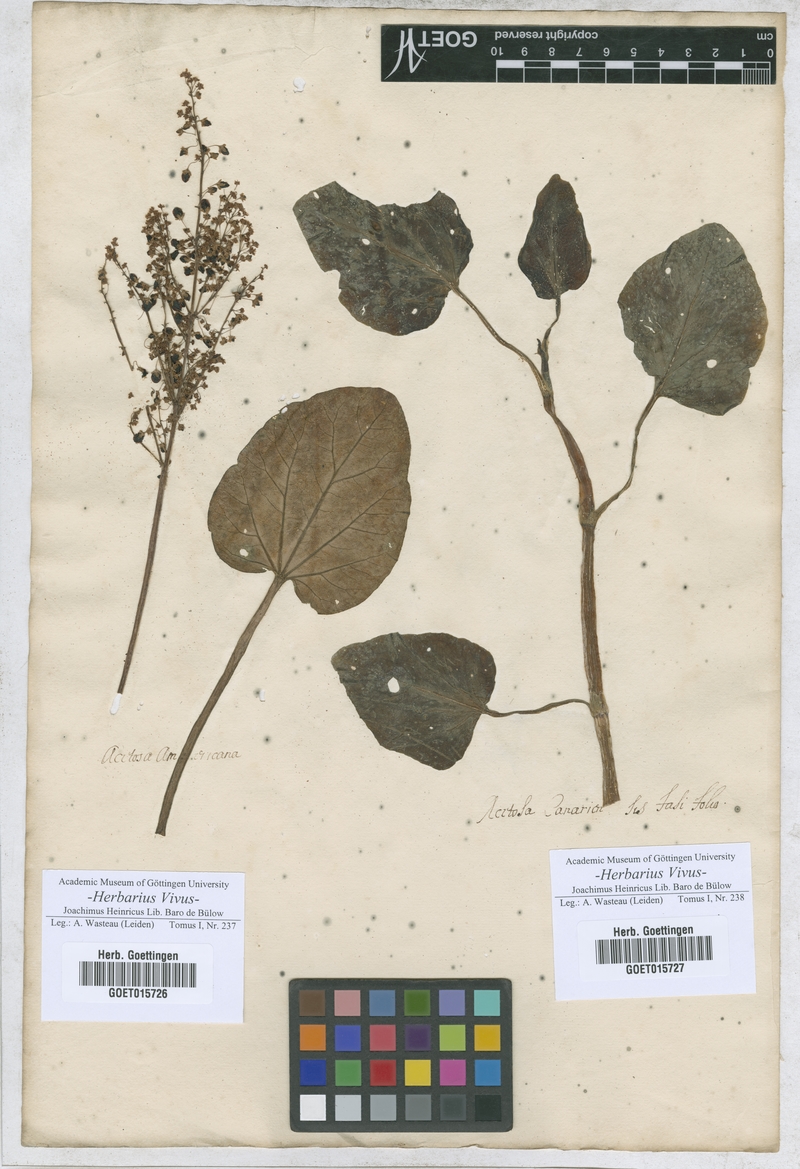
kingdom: Plantae
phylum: Tracheophyta
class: Magnoliopsida
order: Caryophyllales
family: Polygonaceae
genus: Rumex
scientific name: Rumex vesicarius
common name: Bladder dock
